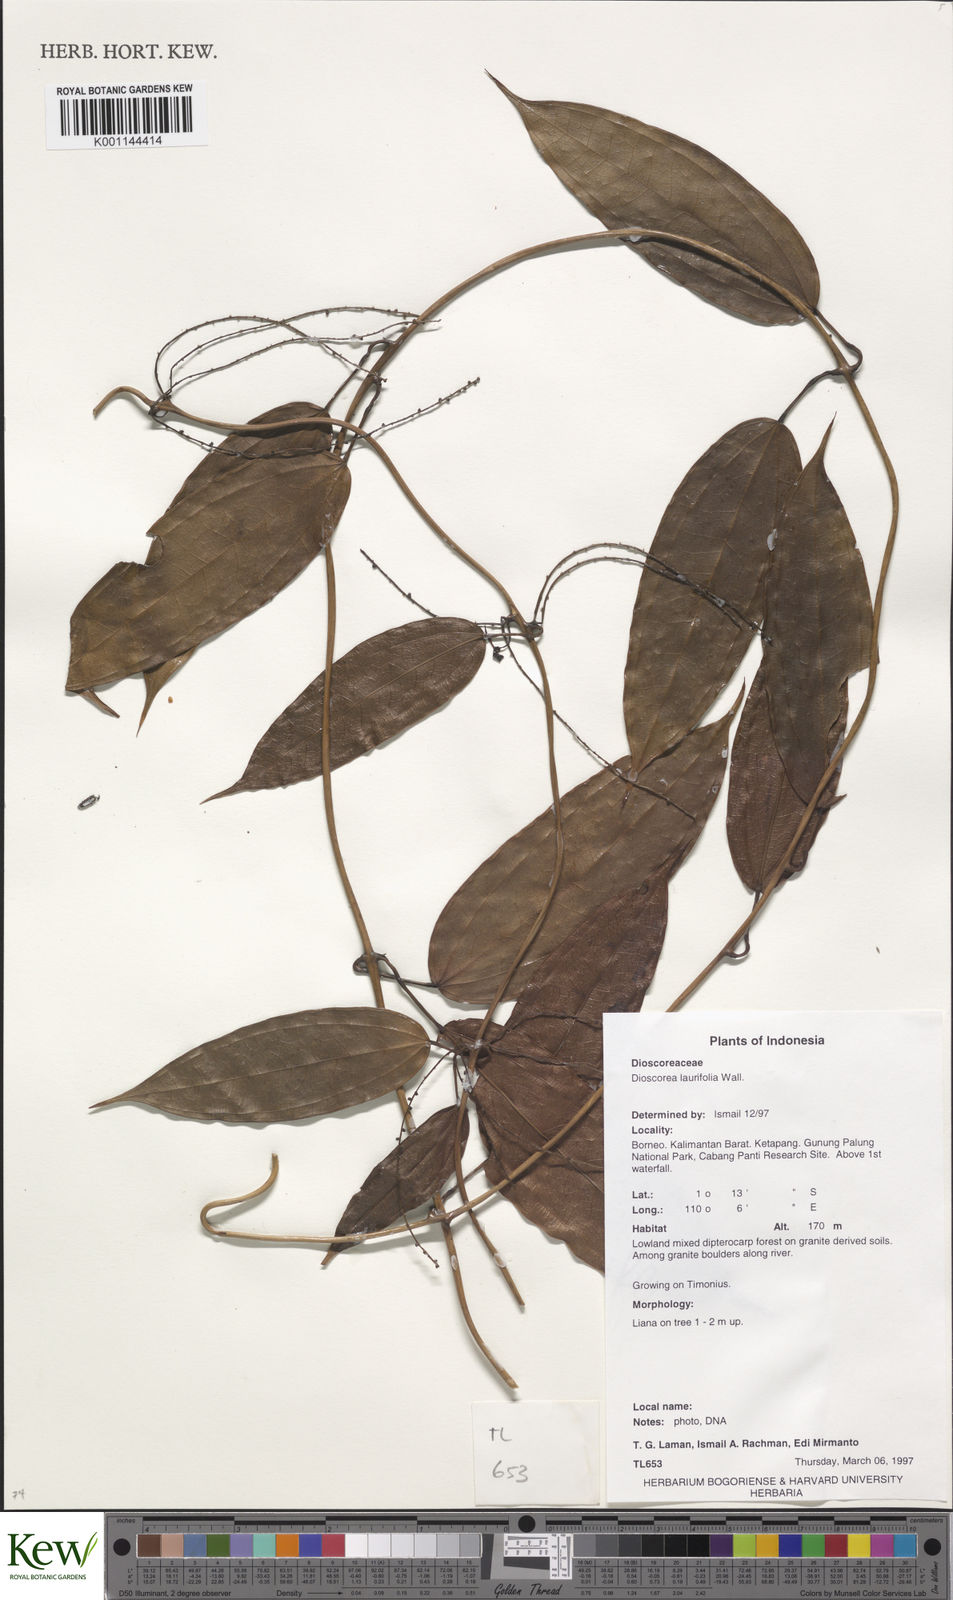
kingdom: Plantae
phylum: Tracheophyta
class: Liliopsida
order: Dioscoreales
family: Dioscoreaceae
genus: Dioscorea
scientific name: Dioscorea laurifolia
